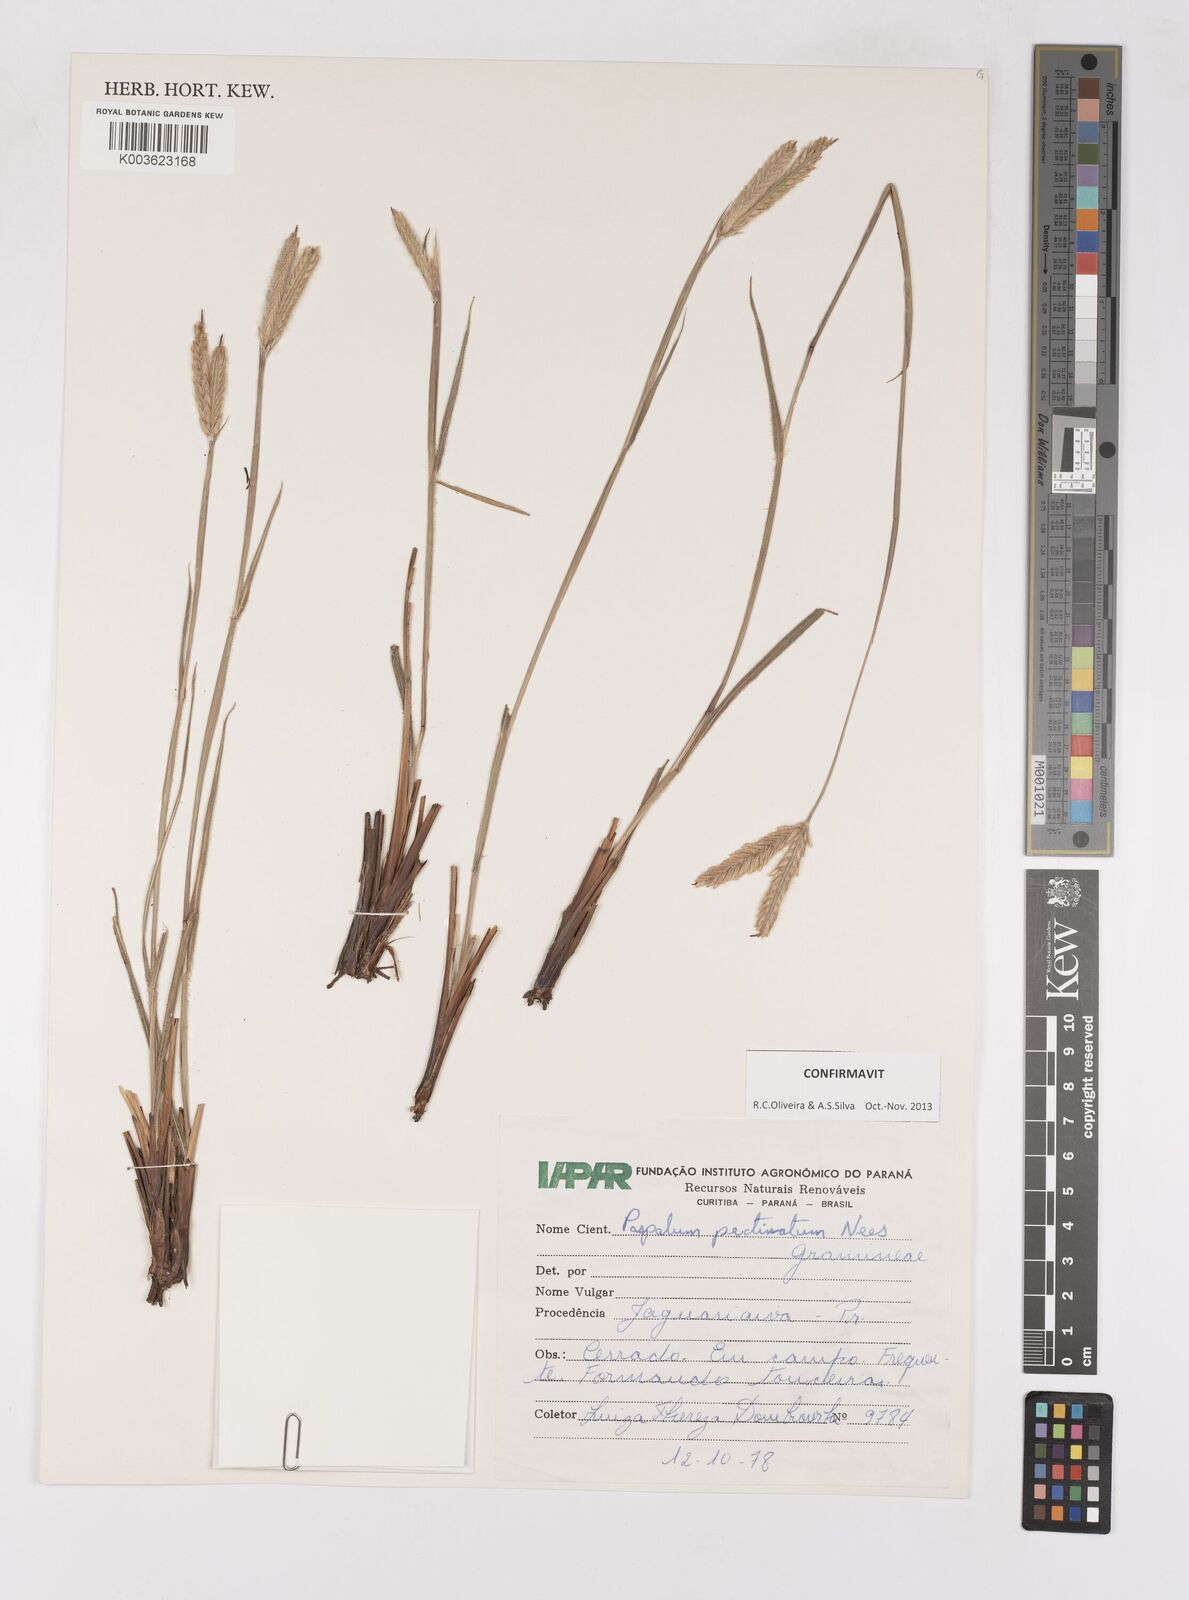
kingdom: Plantae
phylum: Tracheophyta
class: Liliopsida
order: Poales
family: Poaceae
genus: Paspalum
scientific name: Paspalum pectinatum
